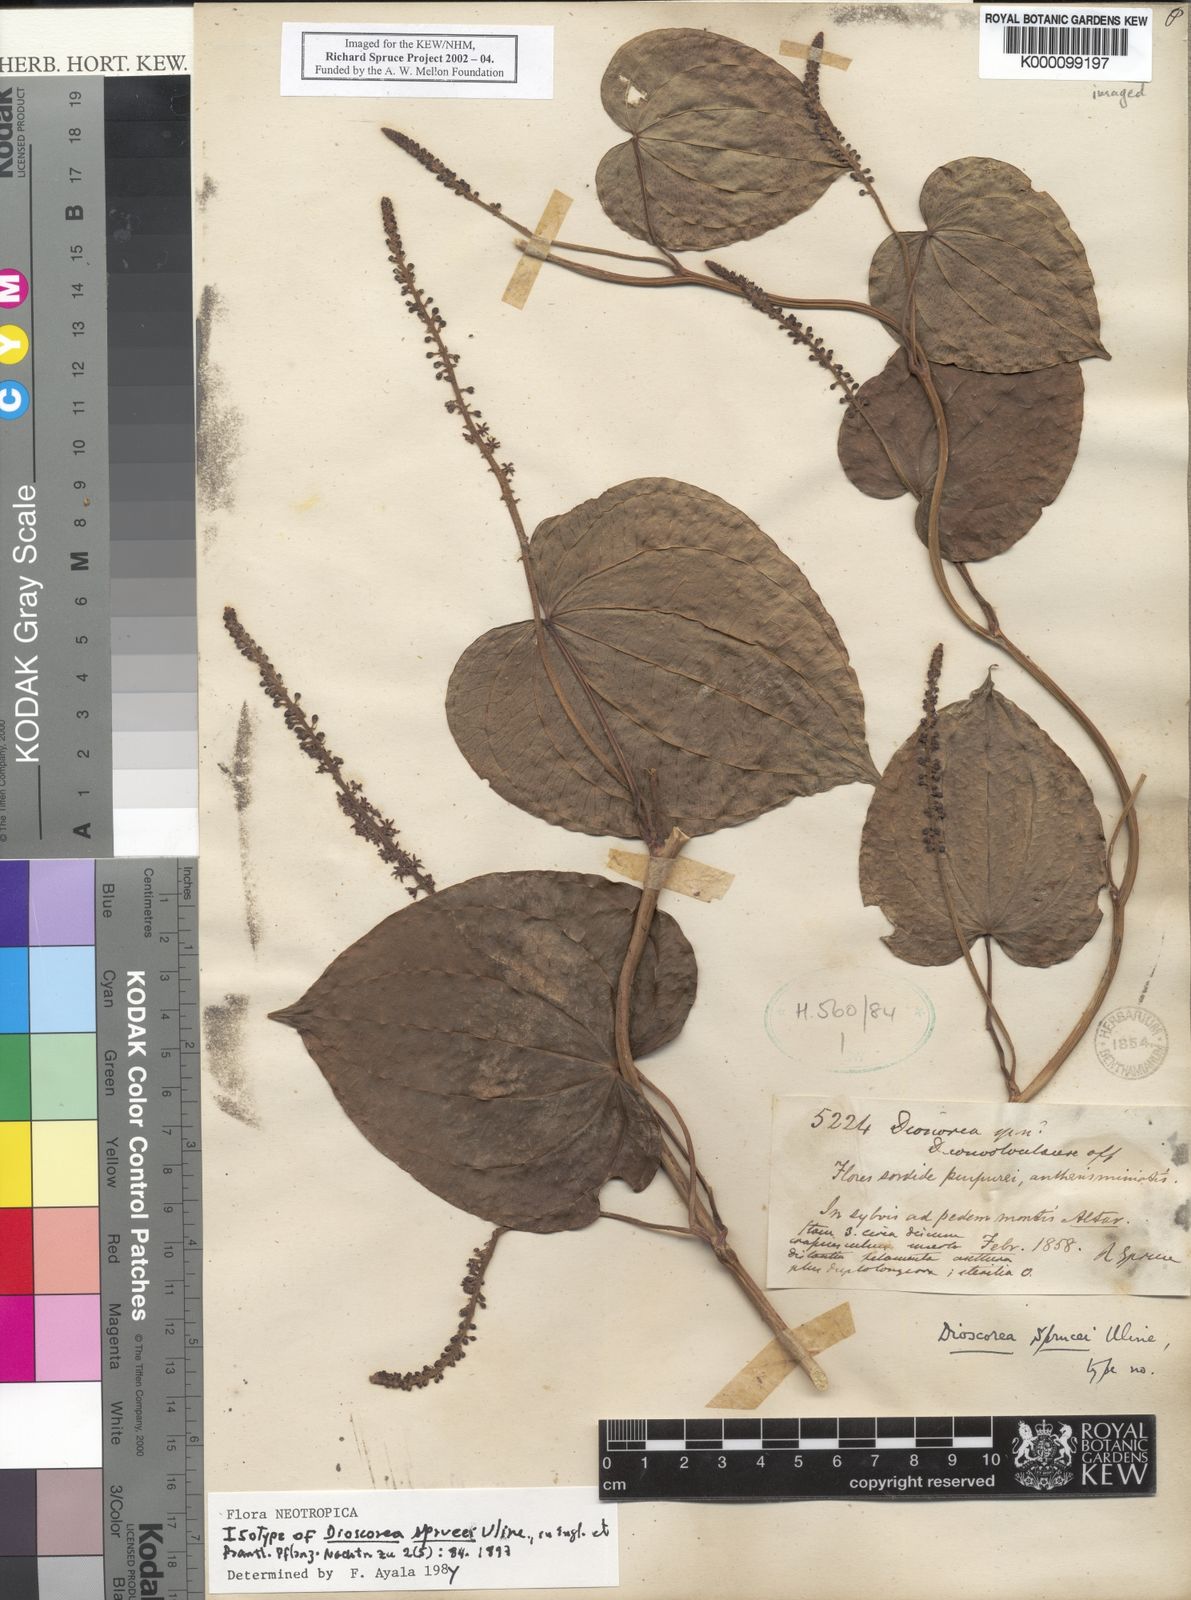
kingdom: Plantae
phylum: Tracheophyta
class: Liliopsida
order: Dioscoreales
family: Dioscoreaceae
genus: Dioscorea
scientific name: Dioscorea
